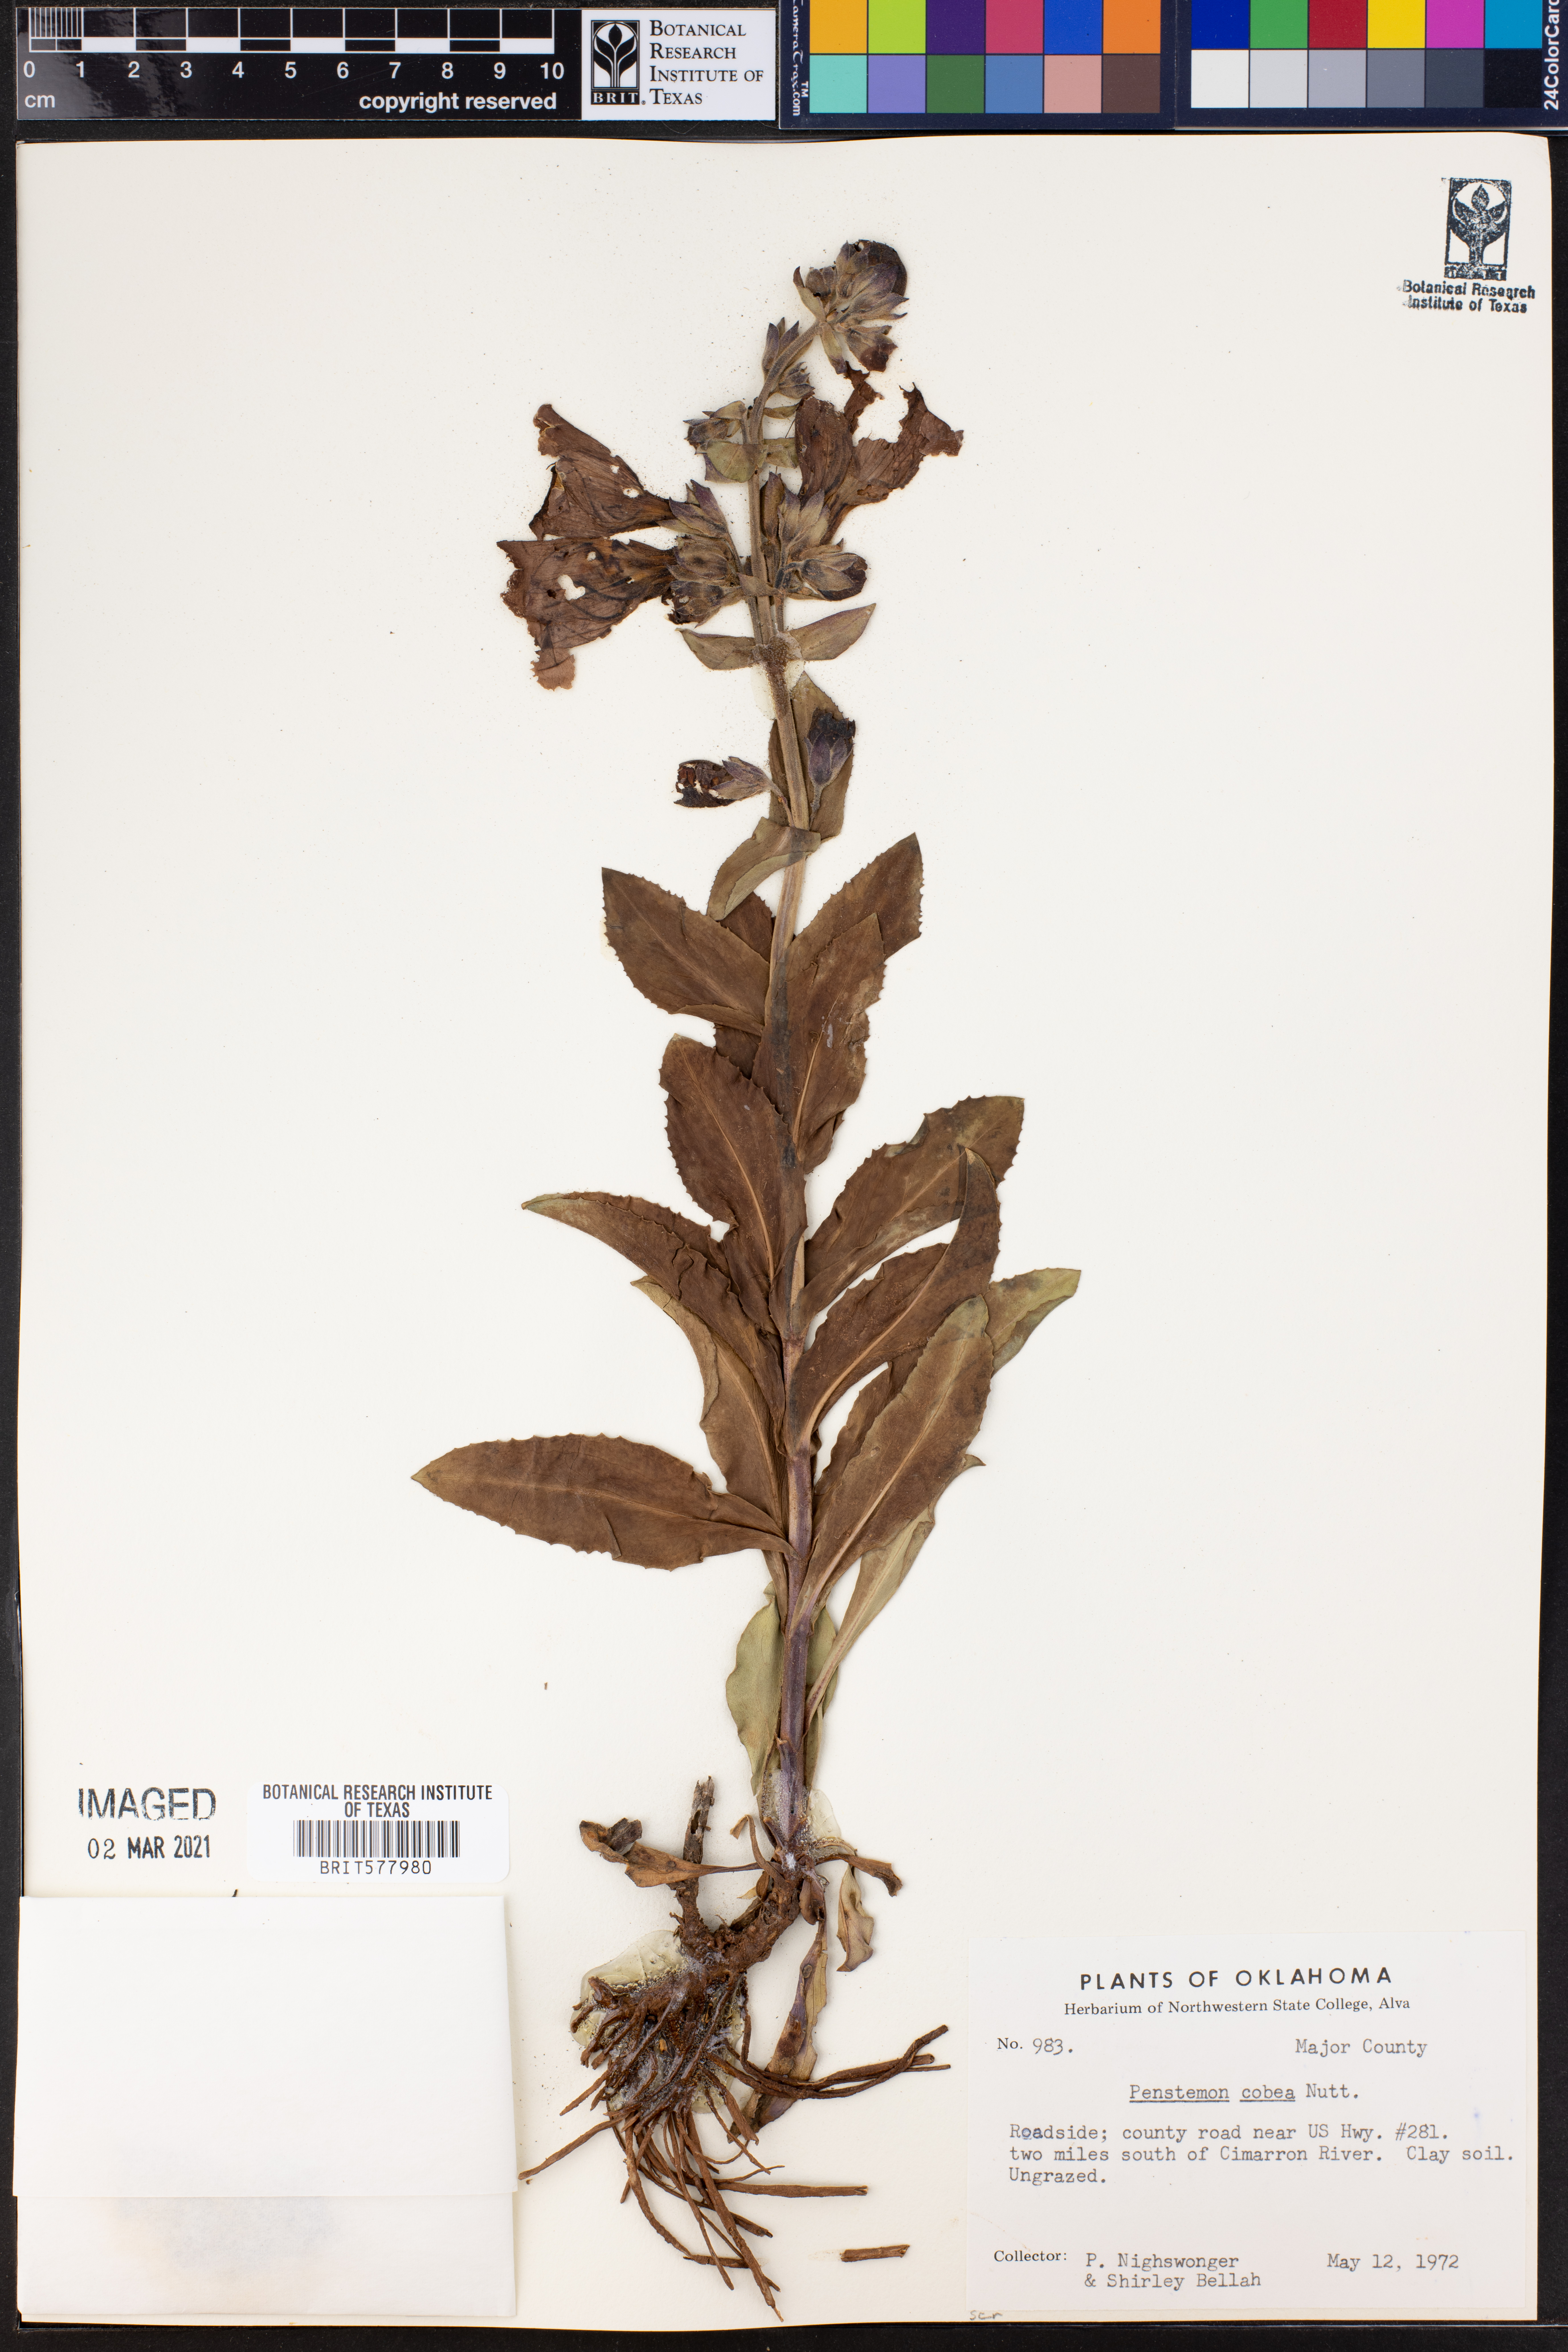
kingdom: Plantae
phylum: Tracheophyta
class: Magnoliopsida
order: Lamiales
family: Plantaginaceae
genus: Penstemon
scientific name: Penstemon cobaea
